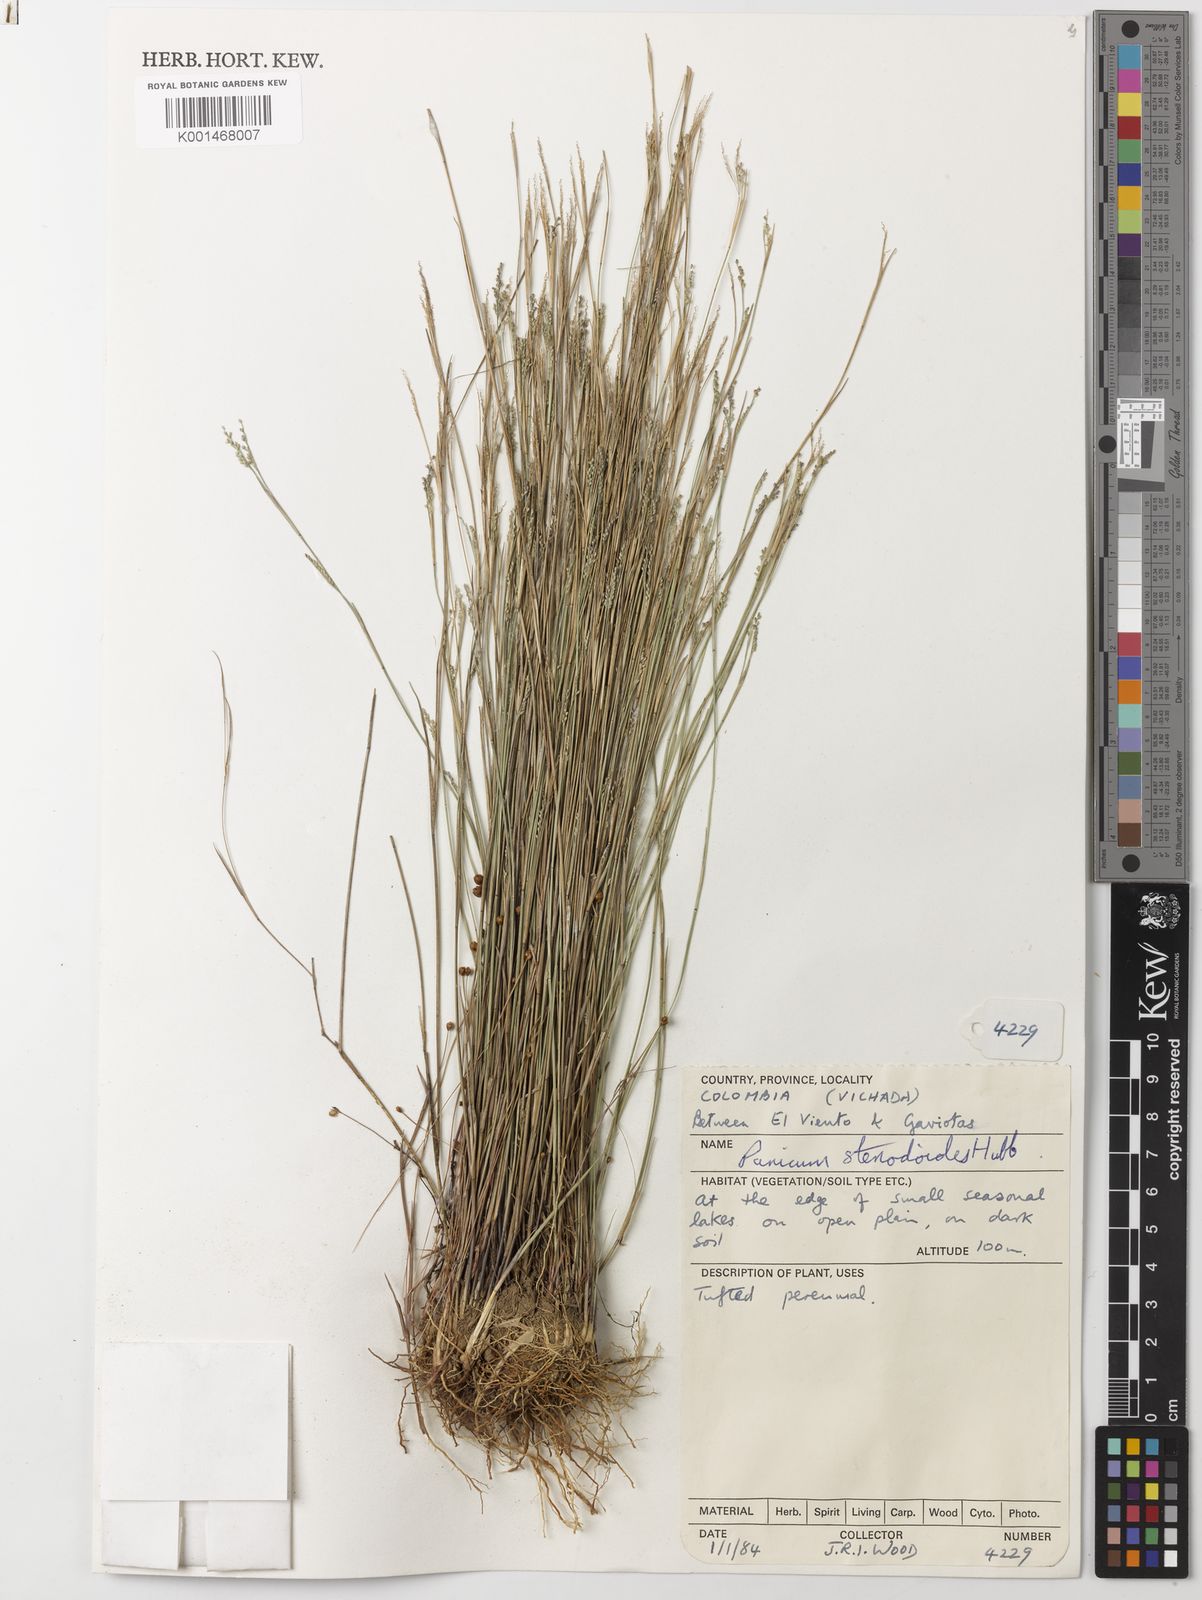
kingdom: Plantae
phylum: Tracheophyta
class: Liliopsida
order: Poales
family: Poaceae
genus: Coleataenia
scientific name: Coleataenia stenodes
